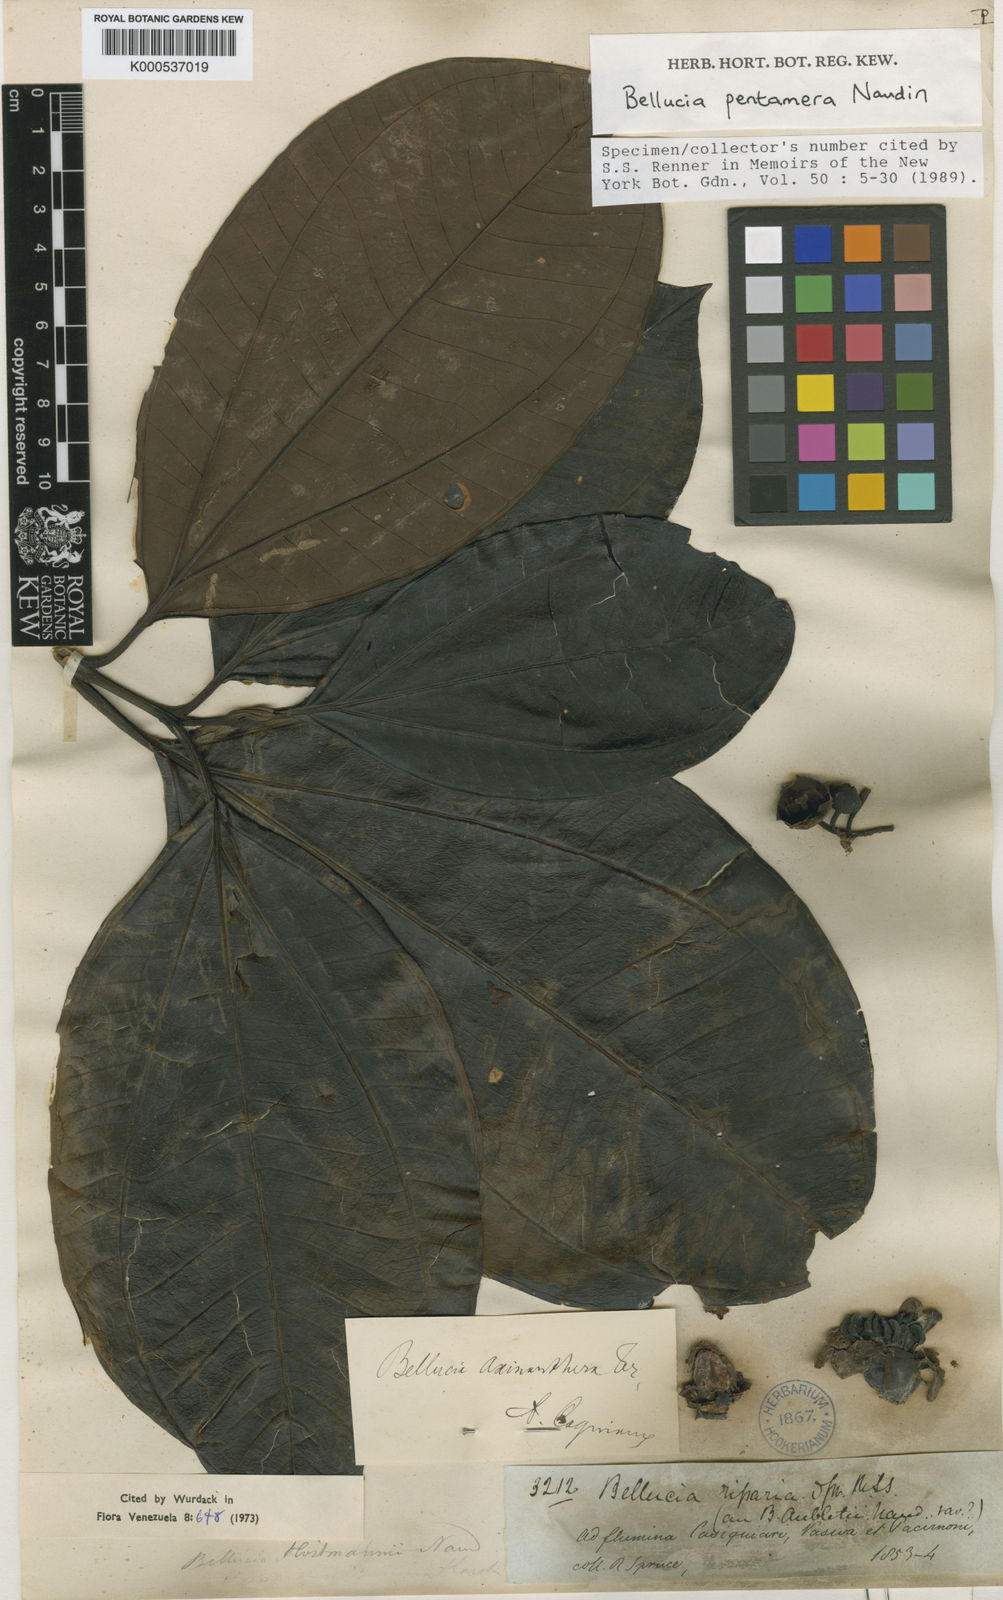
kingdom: Plantae
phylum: Tracheophyta
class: Magnoliopsida
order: Myrtales
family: Melastomataceae
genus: Bellucia
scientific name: Bellucia pentamera
